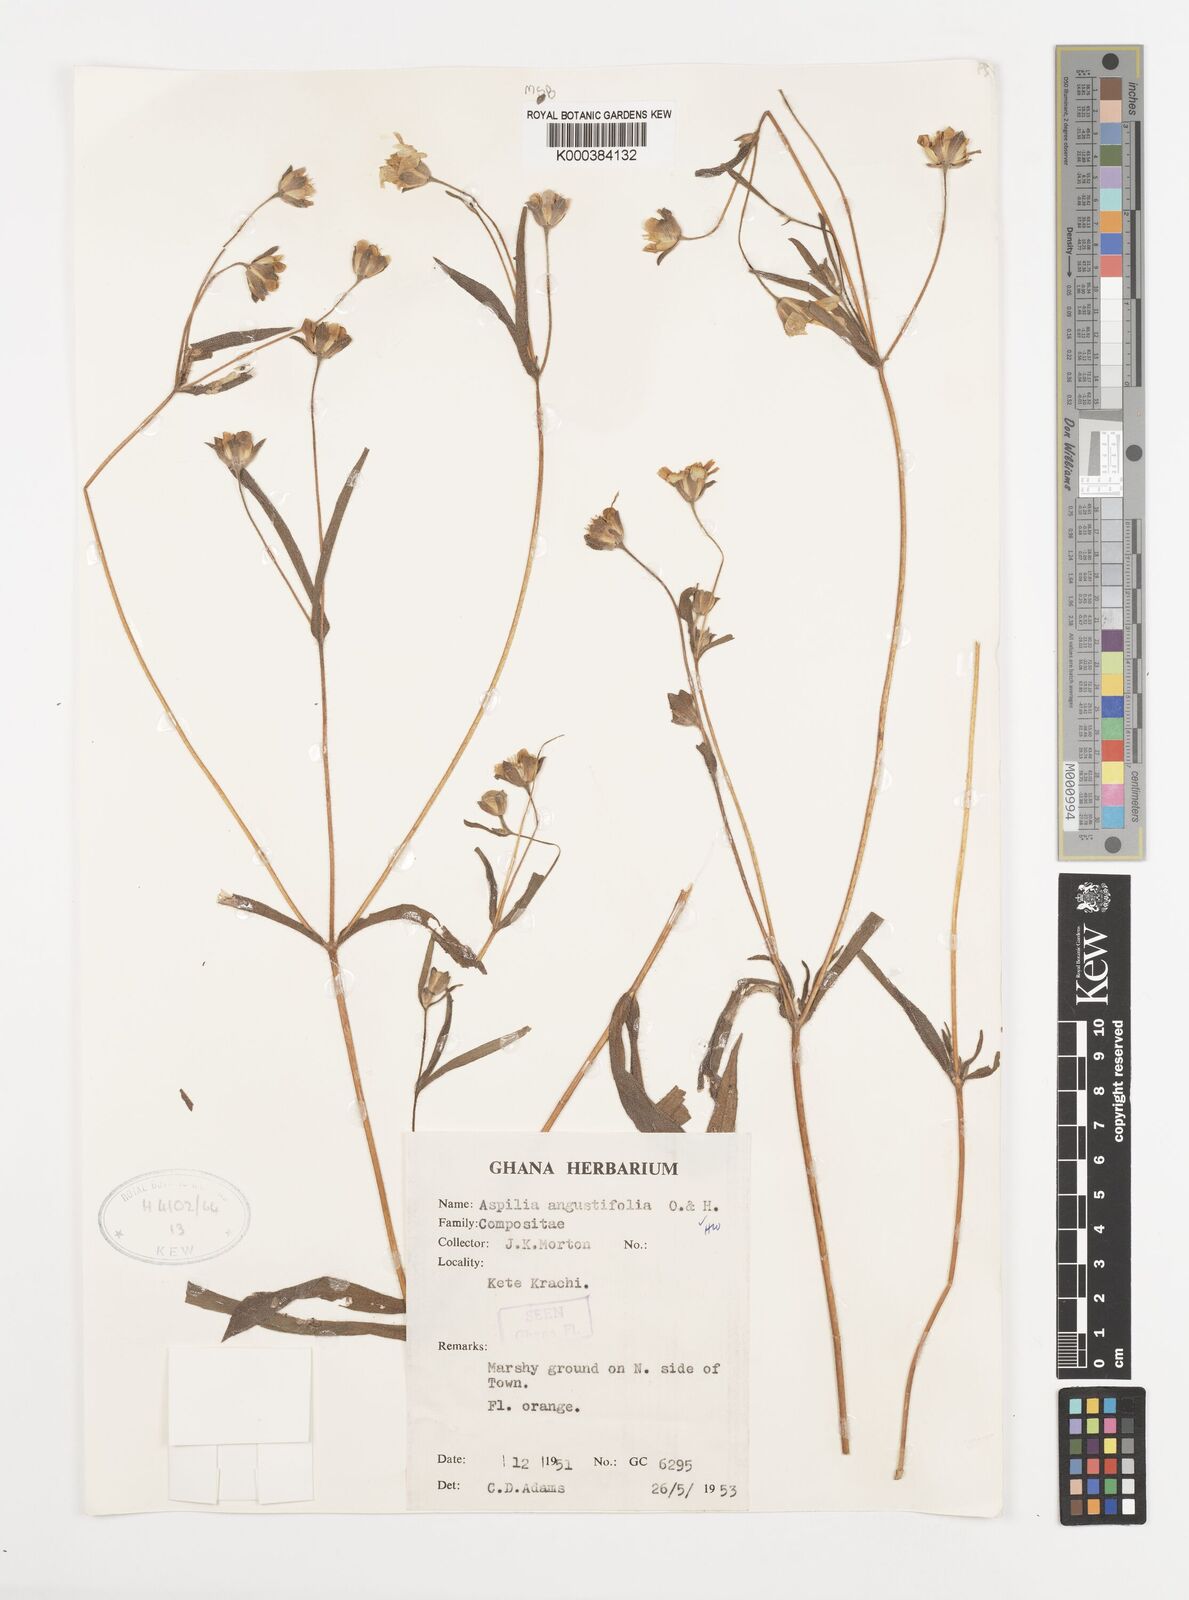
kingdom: Plantae
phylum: Tracheophyta
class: Magnoliopsida
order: Asterales
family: Asteraceae
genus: Aspilia
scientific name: Aspilia angustifolia
